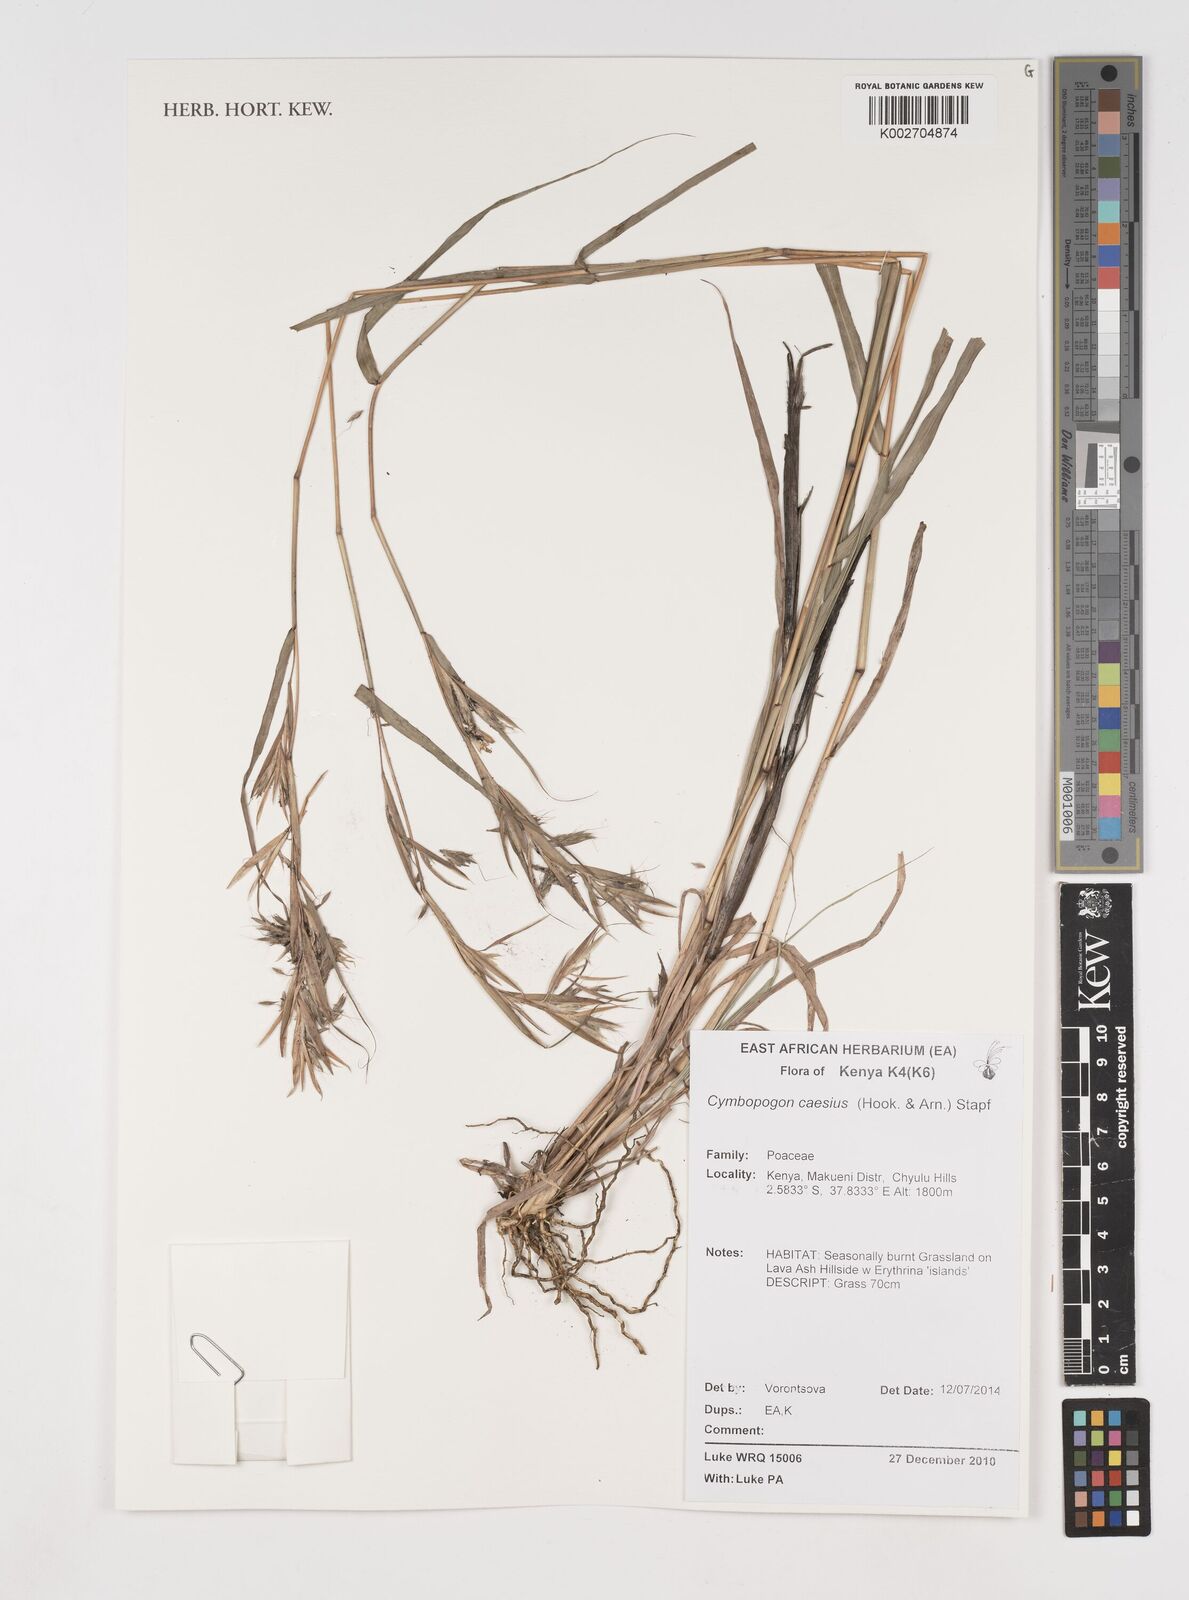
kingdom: Plantae
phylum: Tracheophyta
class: Liliopsida
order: Poales
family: Poaceae
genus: Cymbopogon
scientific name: Cymbopogon caesius
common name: Kachi grass
